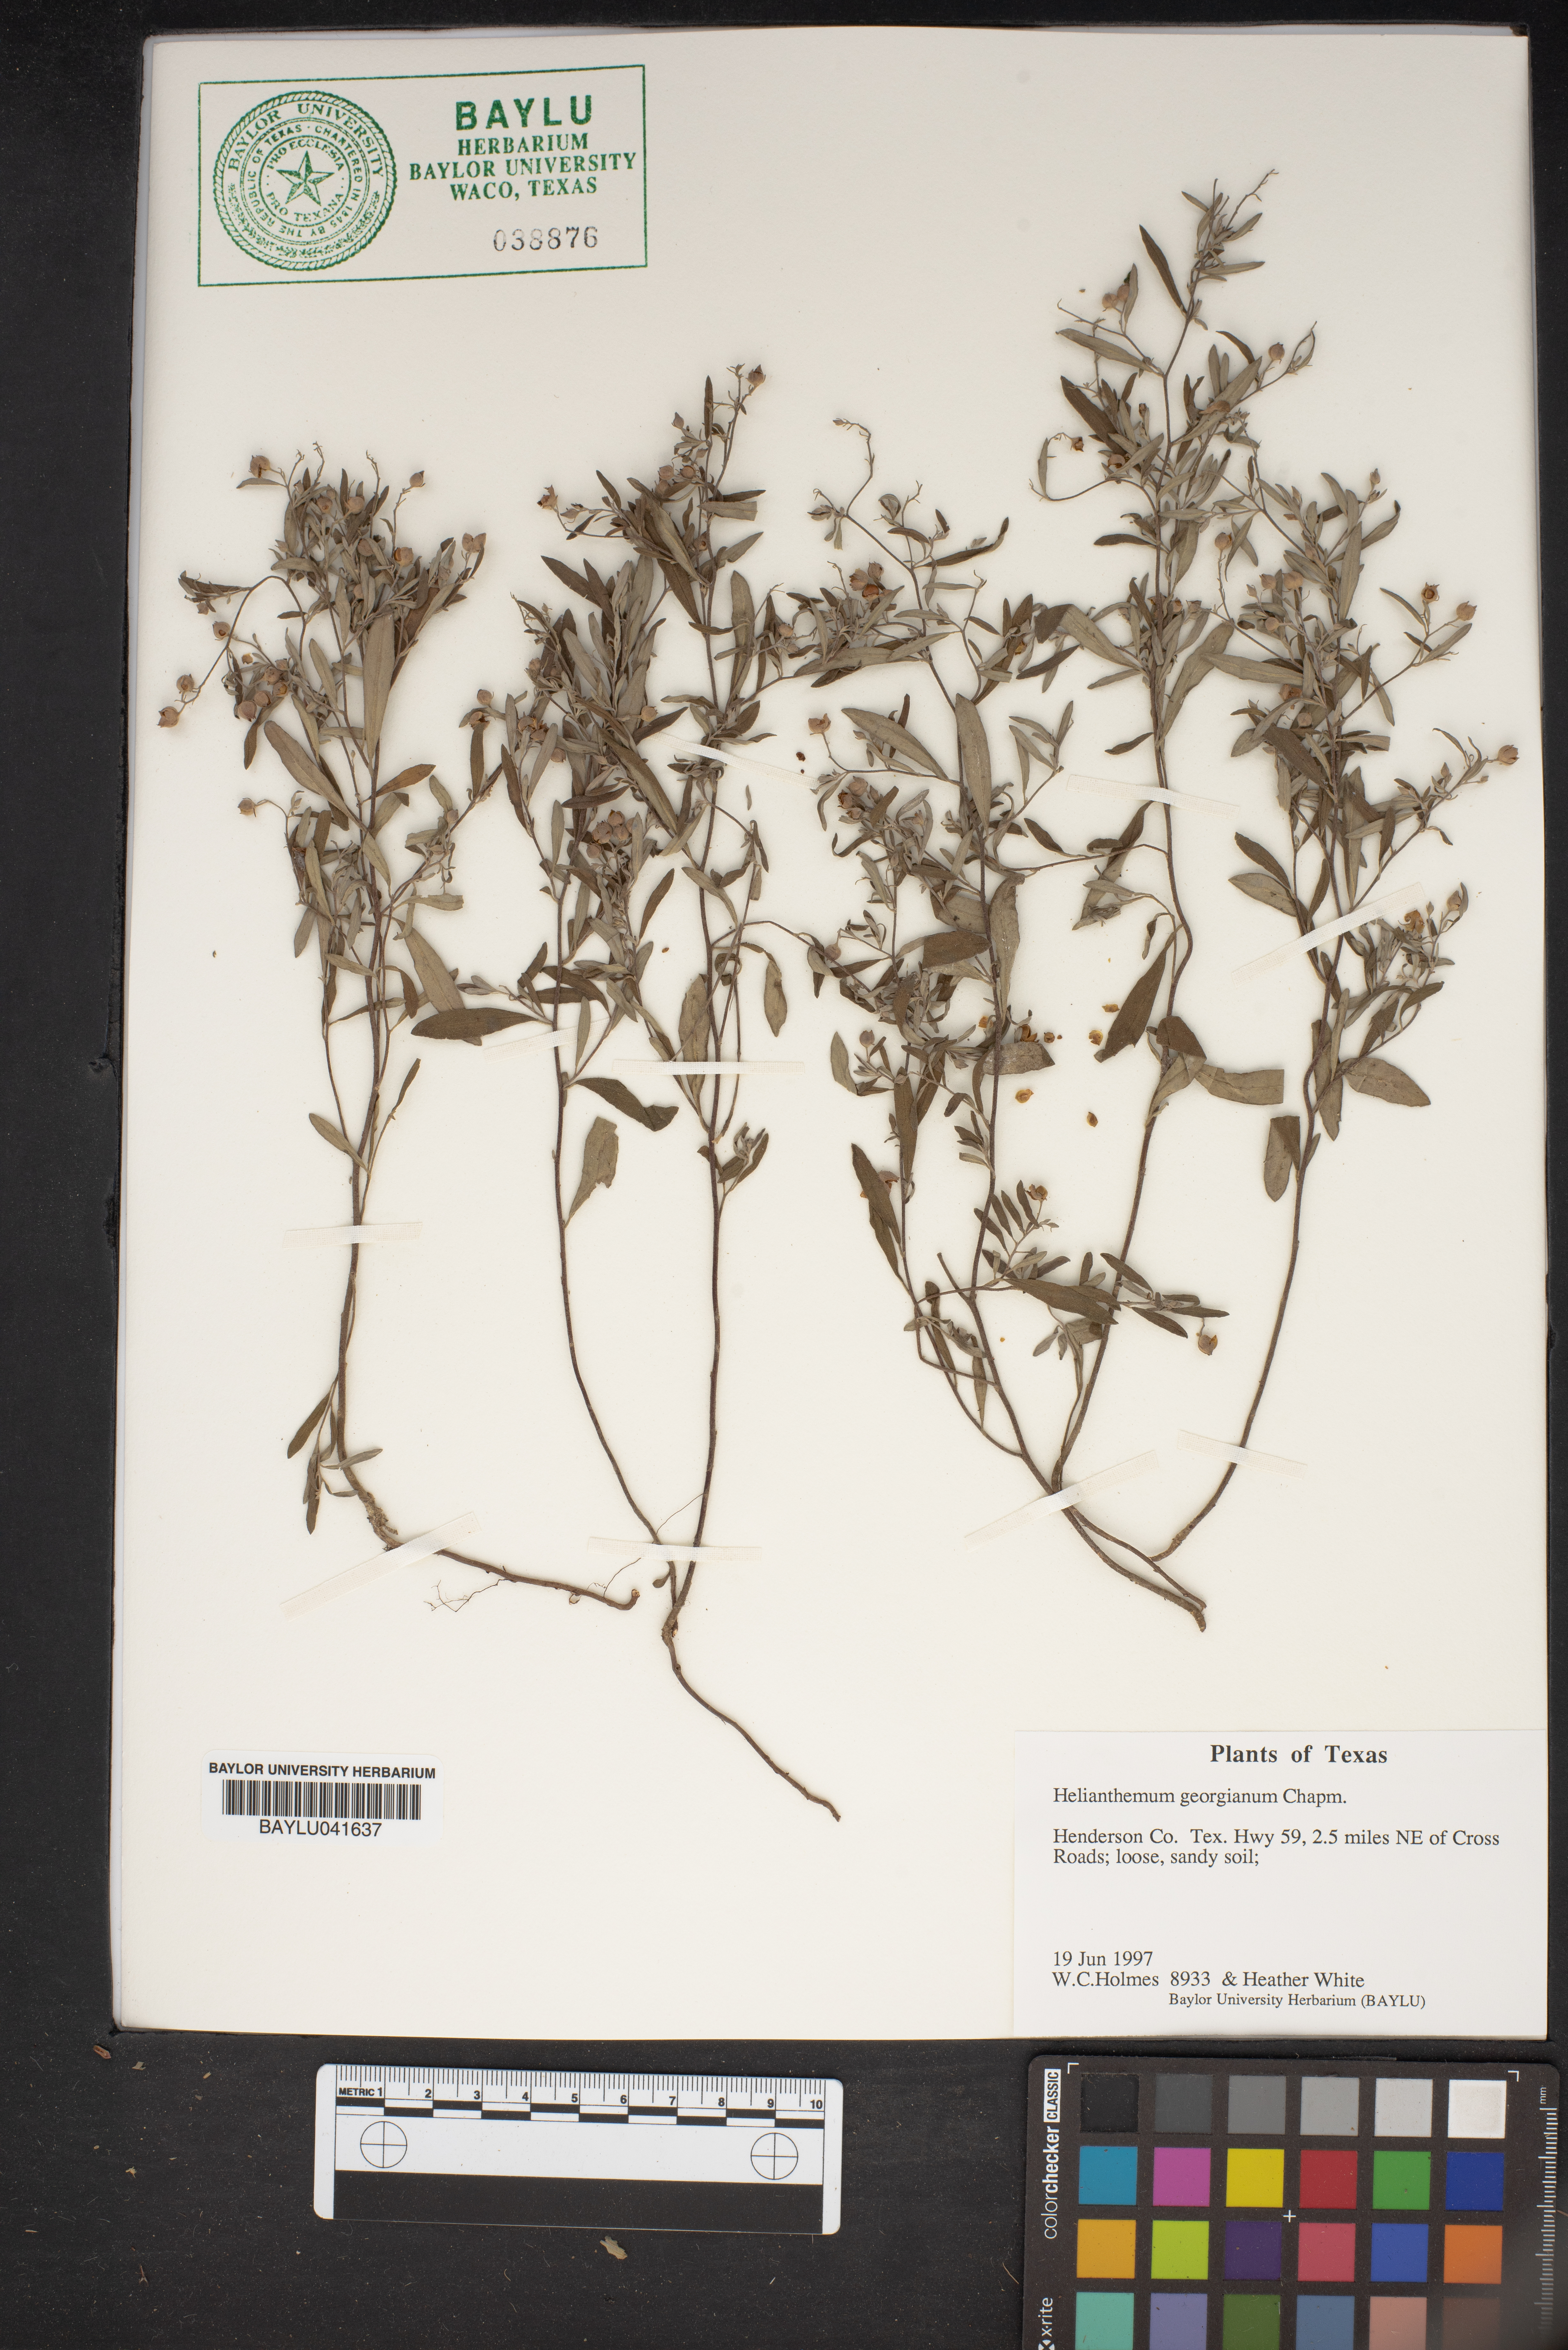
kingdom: Plantae
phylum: Tracheophyta
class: Magnoliopsida
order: Malvales
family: Cistaceae
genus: Crocanthemum
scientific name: Crocanthemum georgianum
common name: Georgia frostweed
